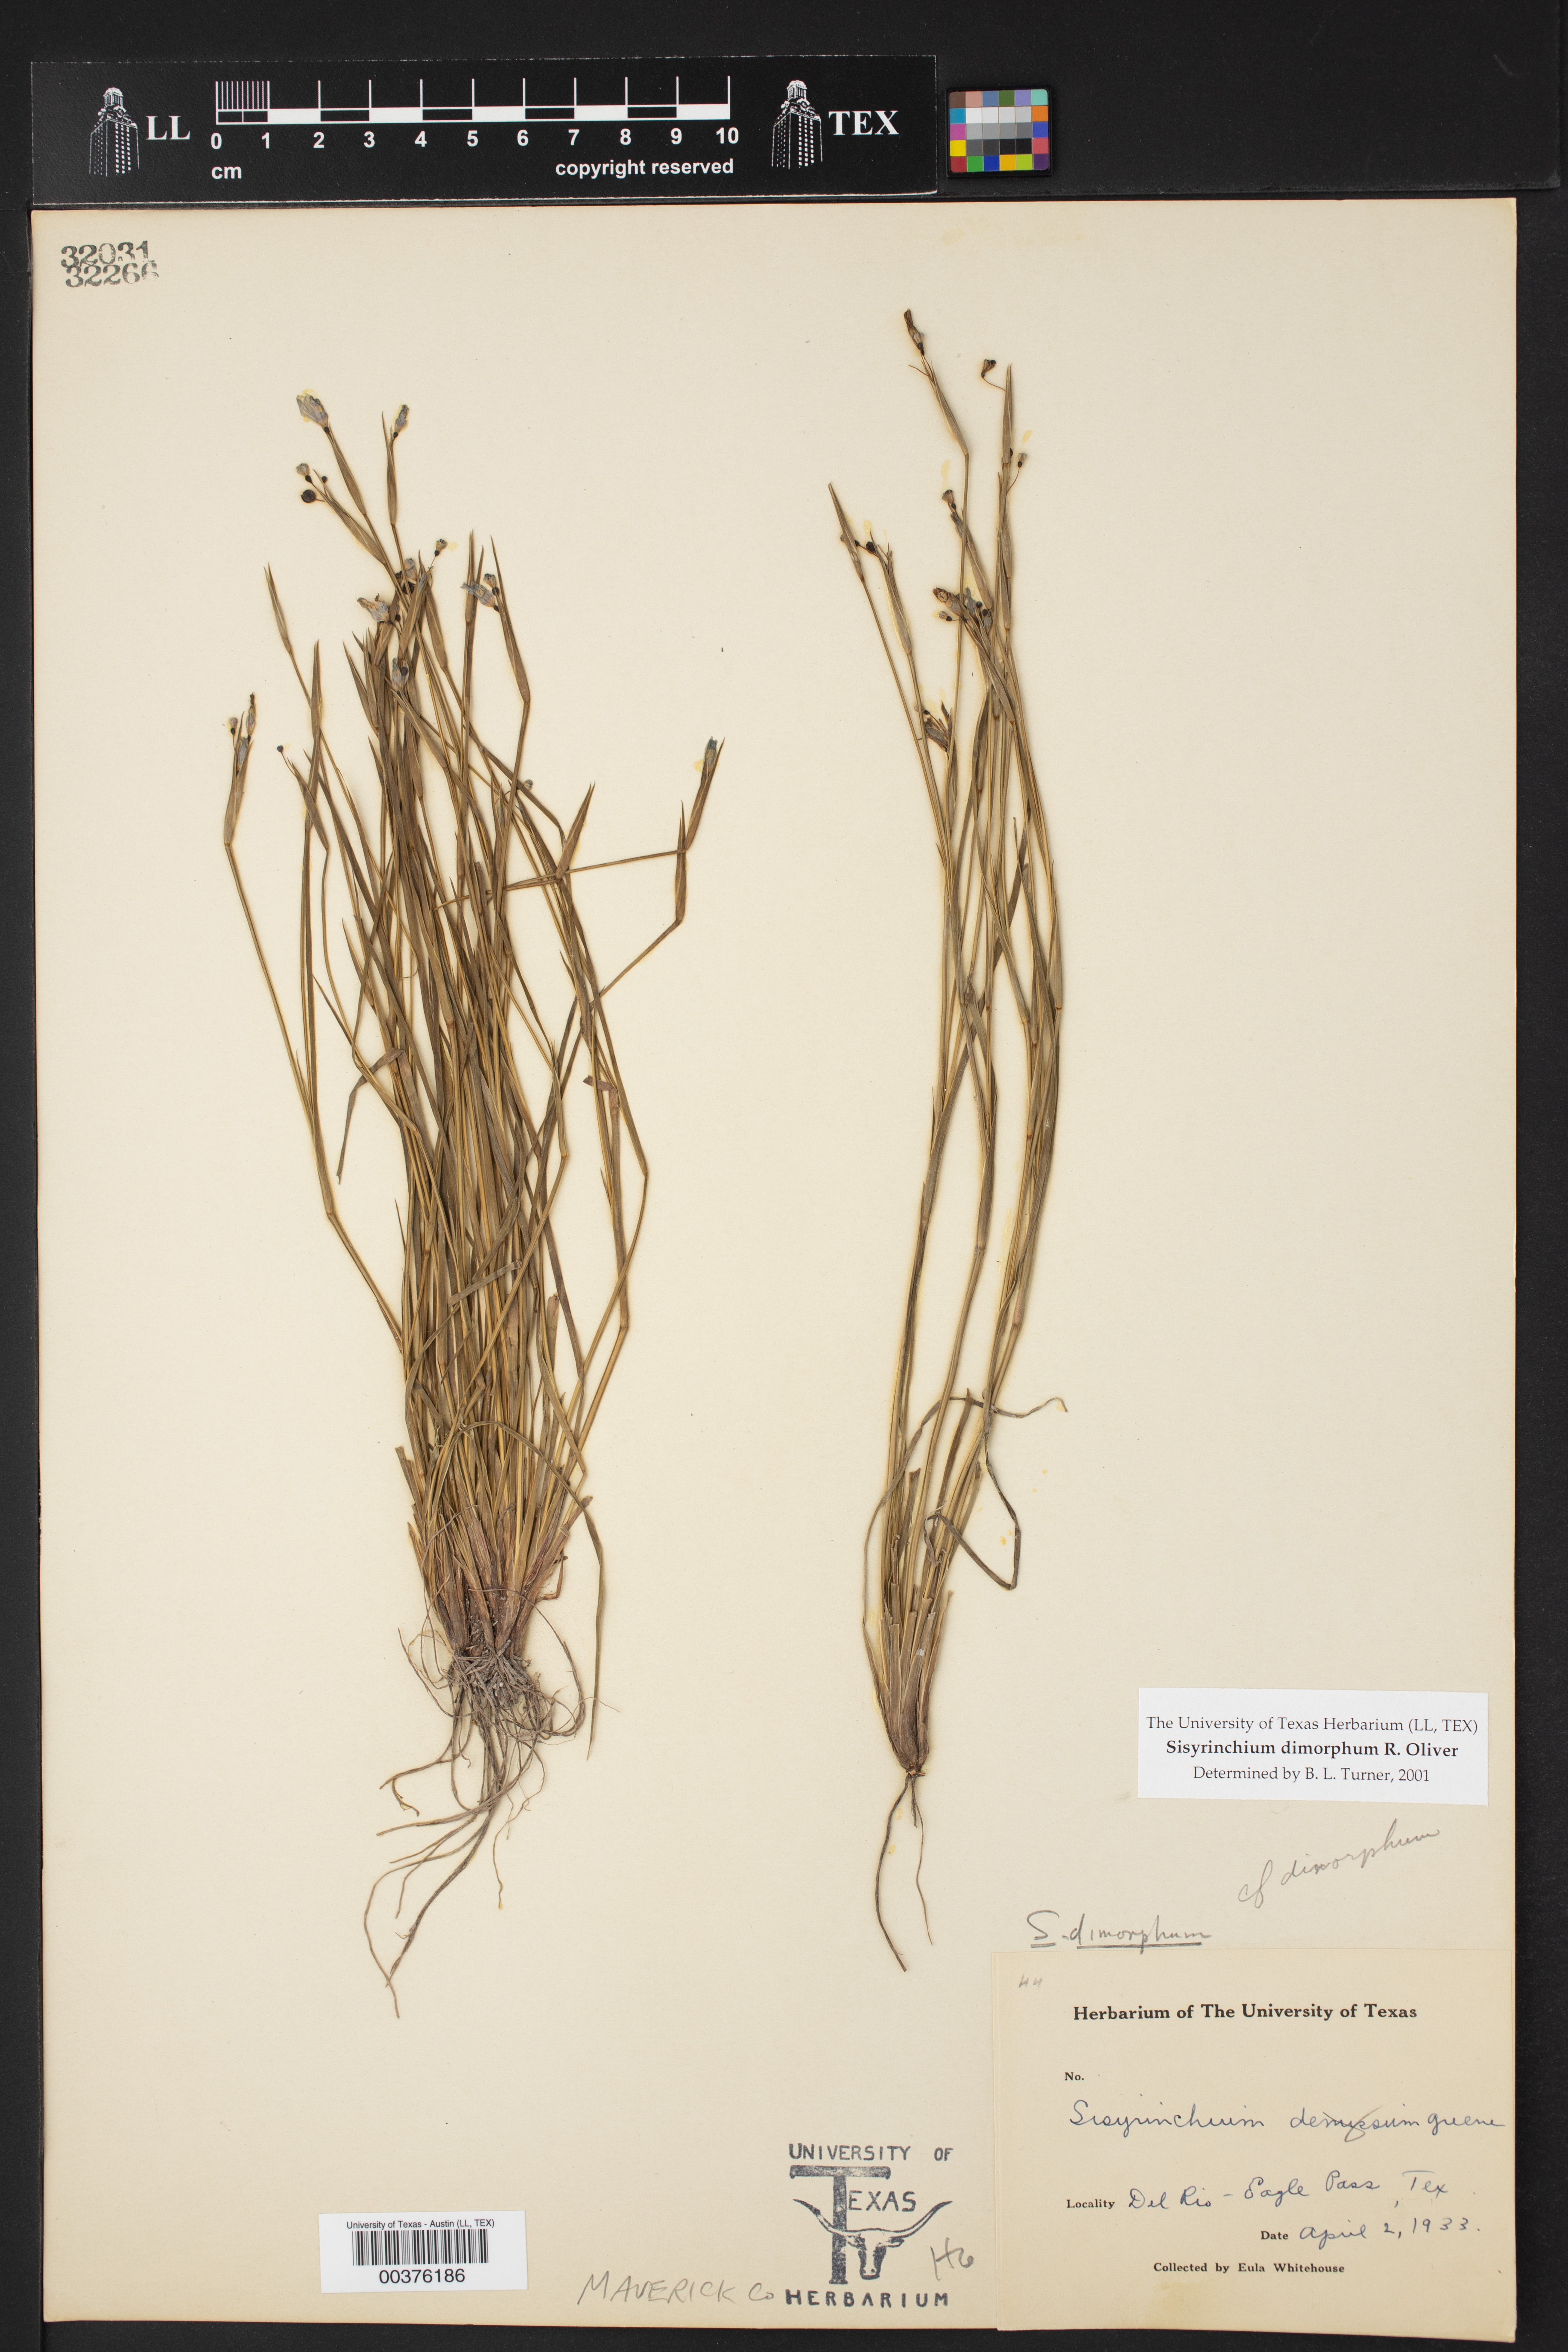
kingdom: Plantae
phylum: Tracheophyta
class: Liliopsida
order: Asparagales
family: Iridaceae
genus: Sisyrinchium
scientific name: Sisyrinchium dimorphum
